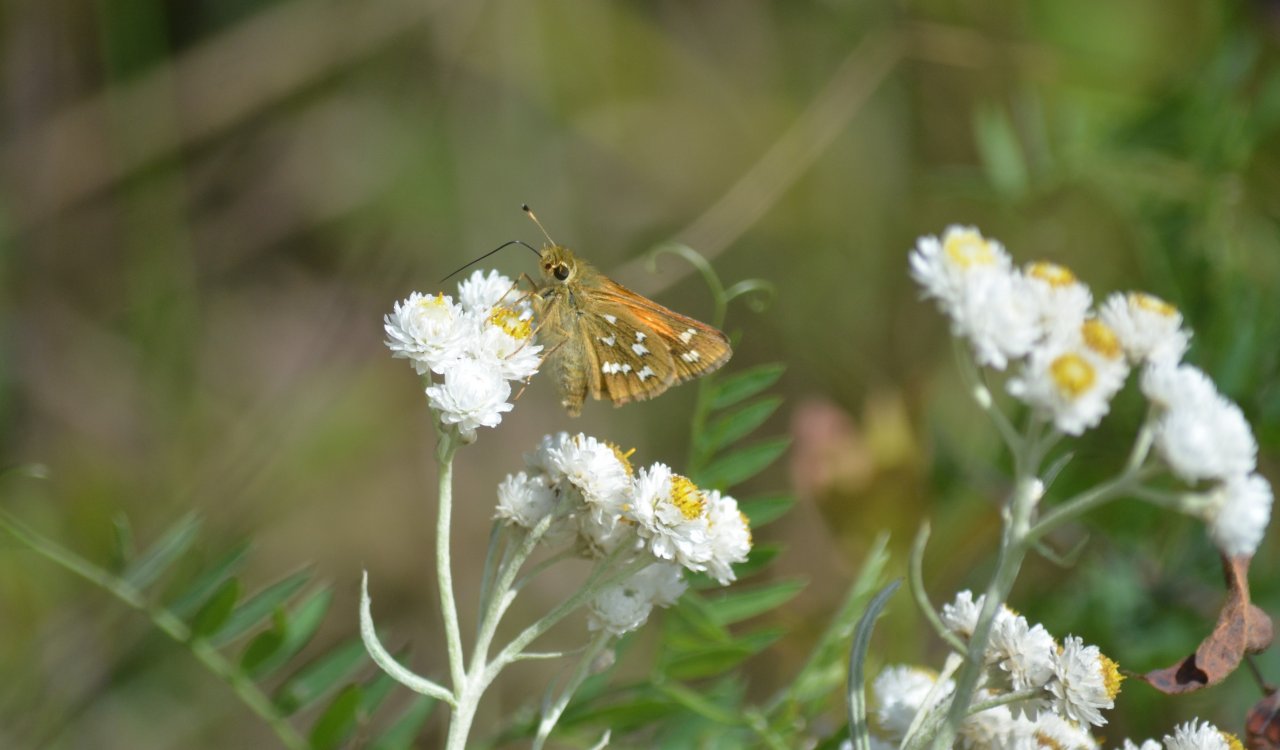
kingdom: Animalia
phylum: Arthropoda
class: Insecta
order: Lepidoptera
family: Hesperiidae
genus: Hesperia
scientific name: Hesperia comma
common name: Common Branded Skipper
